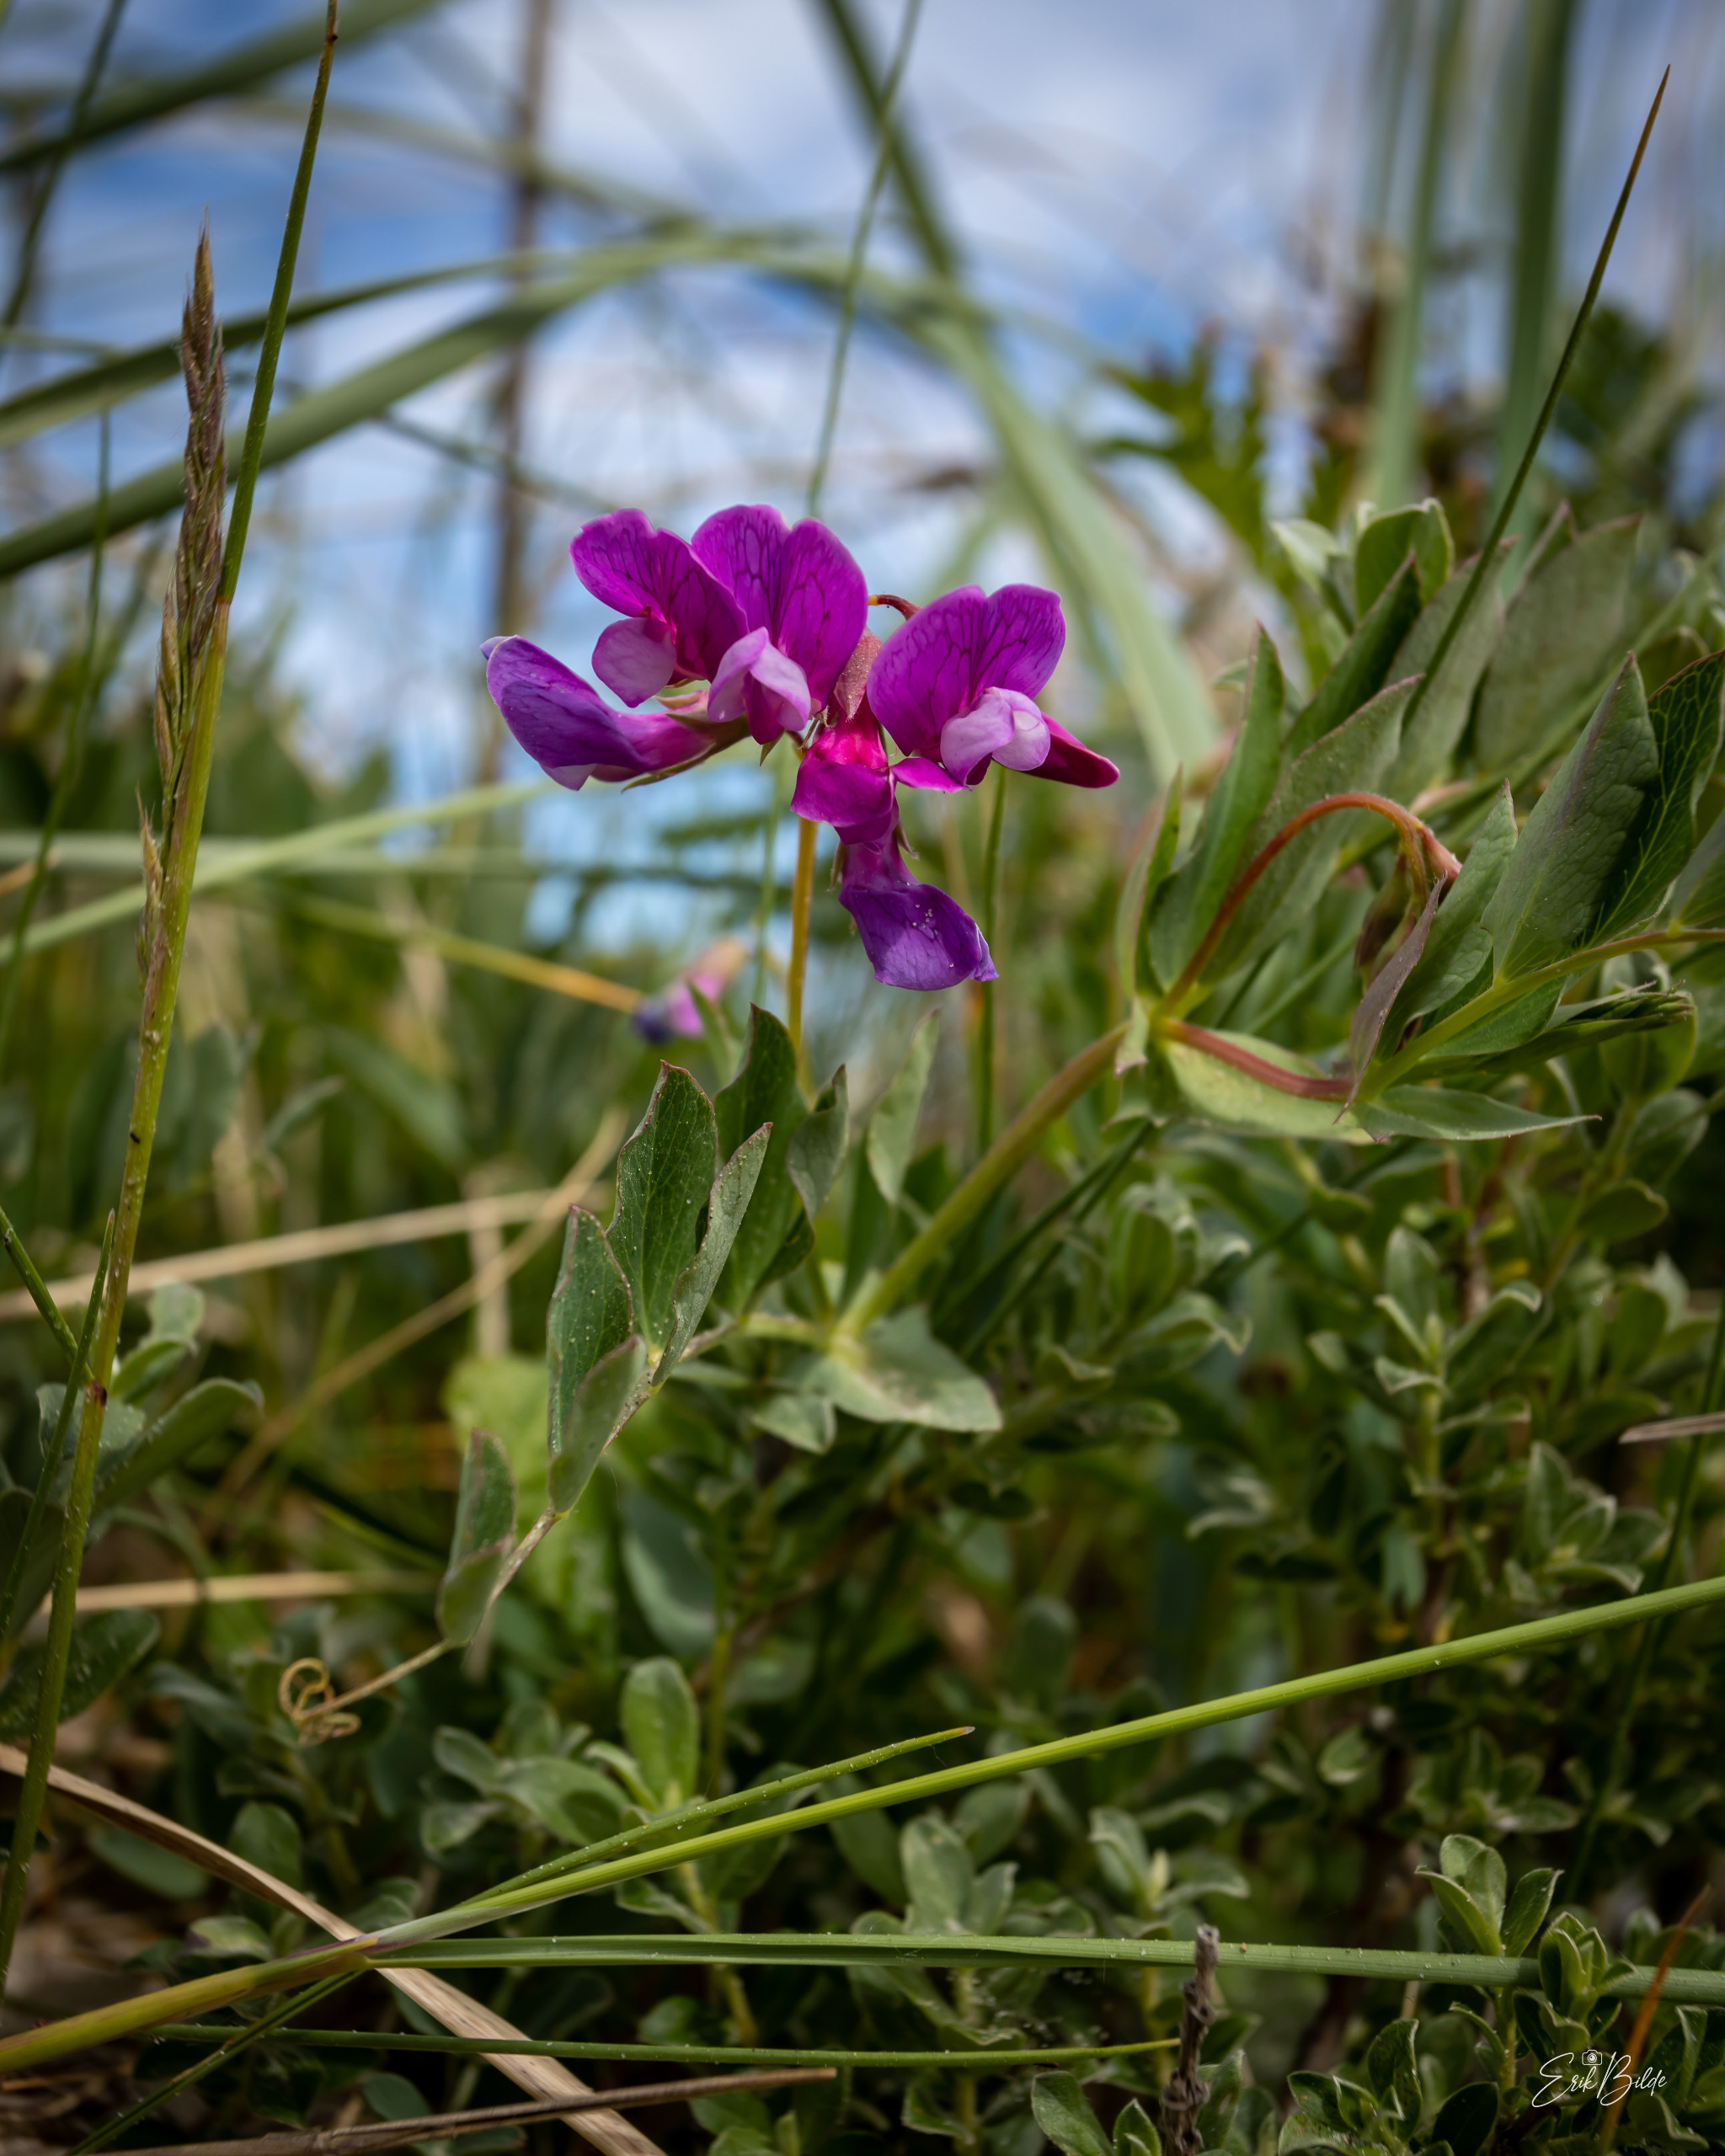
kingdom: Plantae
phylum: Tracheophyta
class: Magnoliopsida
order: Fabales
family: Fabaceae
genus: Lathyrus
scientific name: Lathyrus japonicus
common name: Strand-fladbælg
